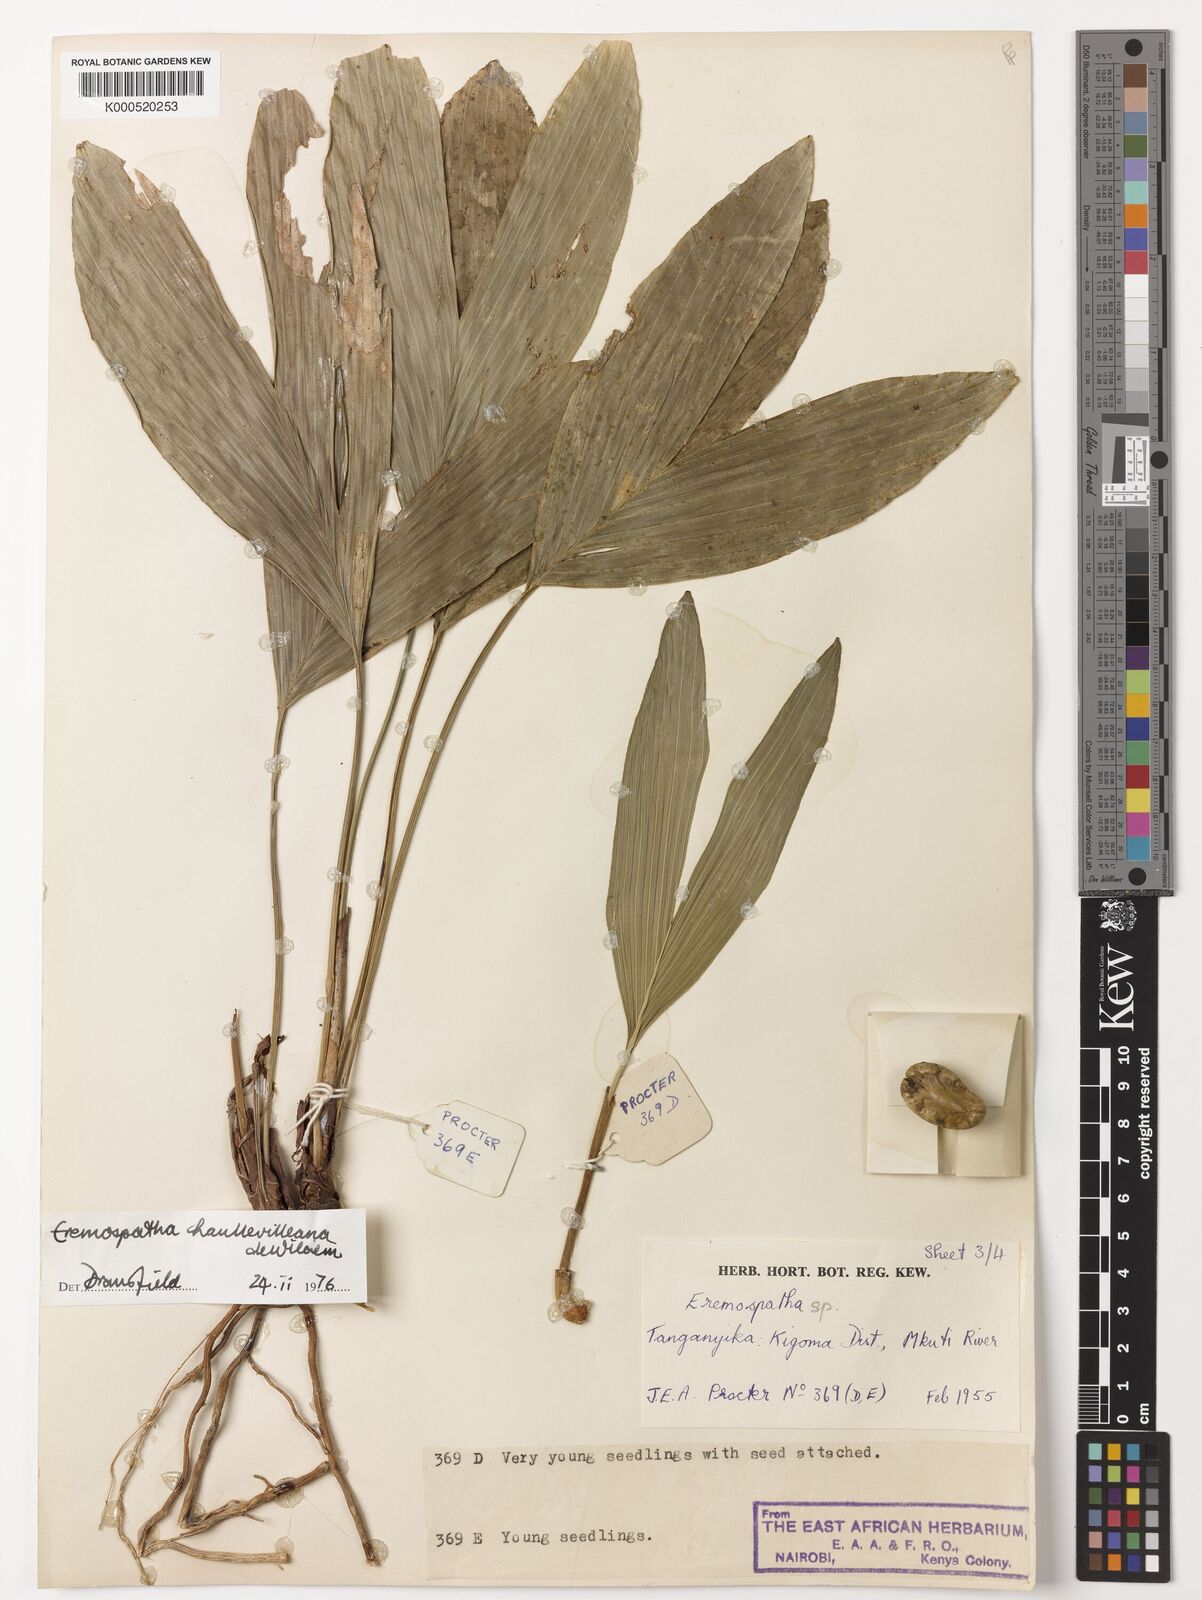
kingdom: Plantae
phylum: Tracheophyta
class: Liliopsida
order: Arecales
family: Arecaceae
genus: Eremospatha
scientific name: Eremospatha haullevilleana
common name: Rattan
